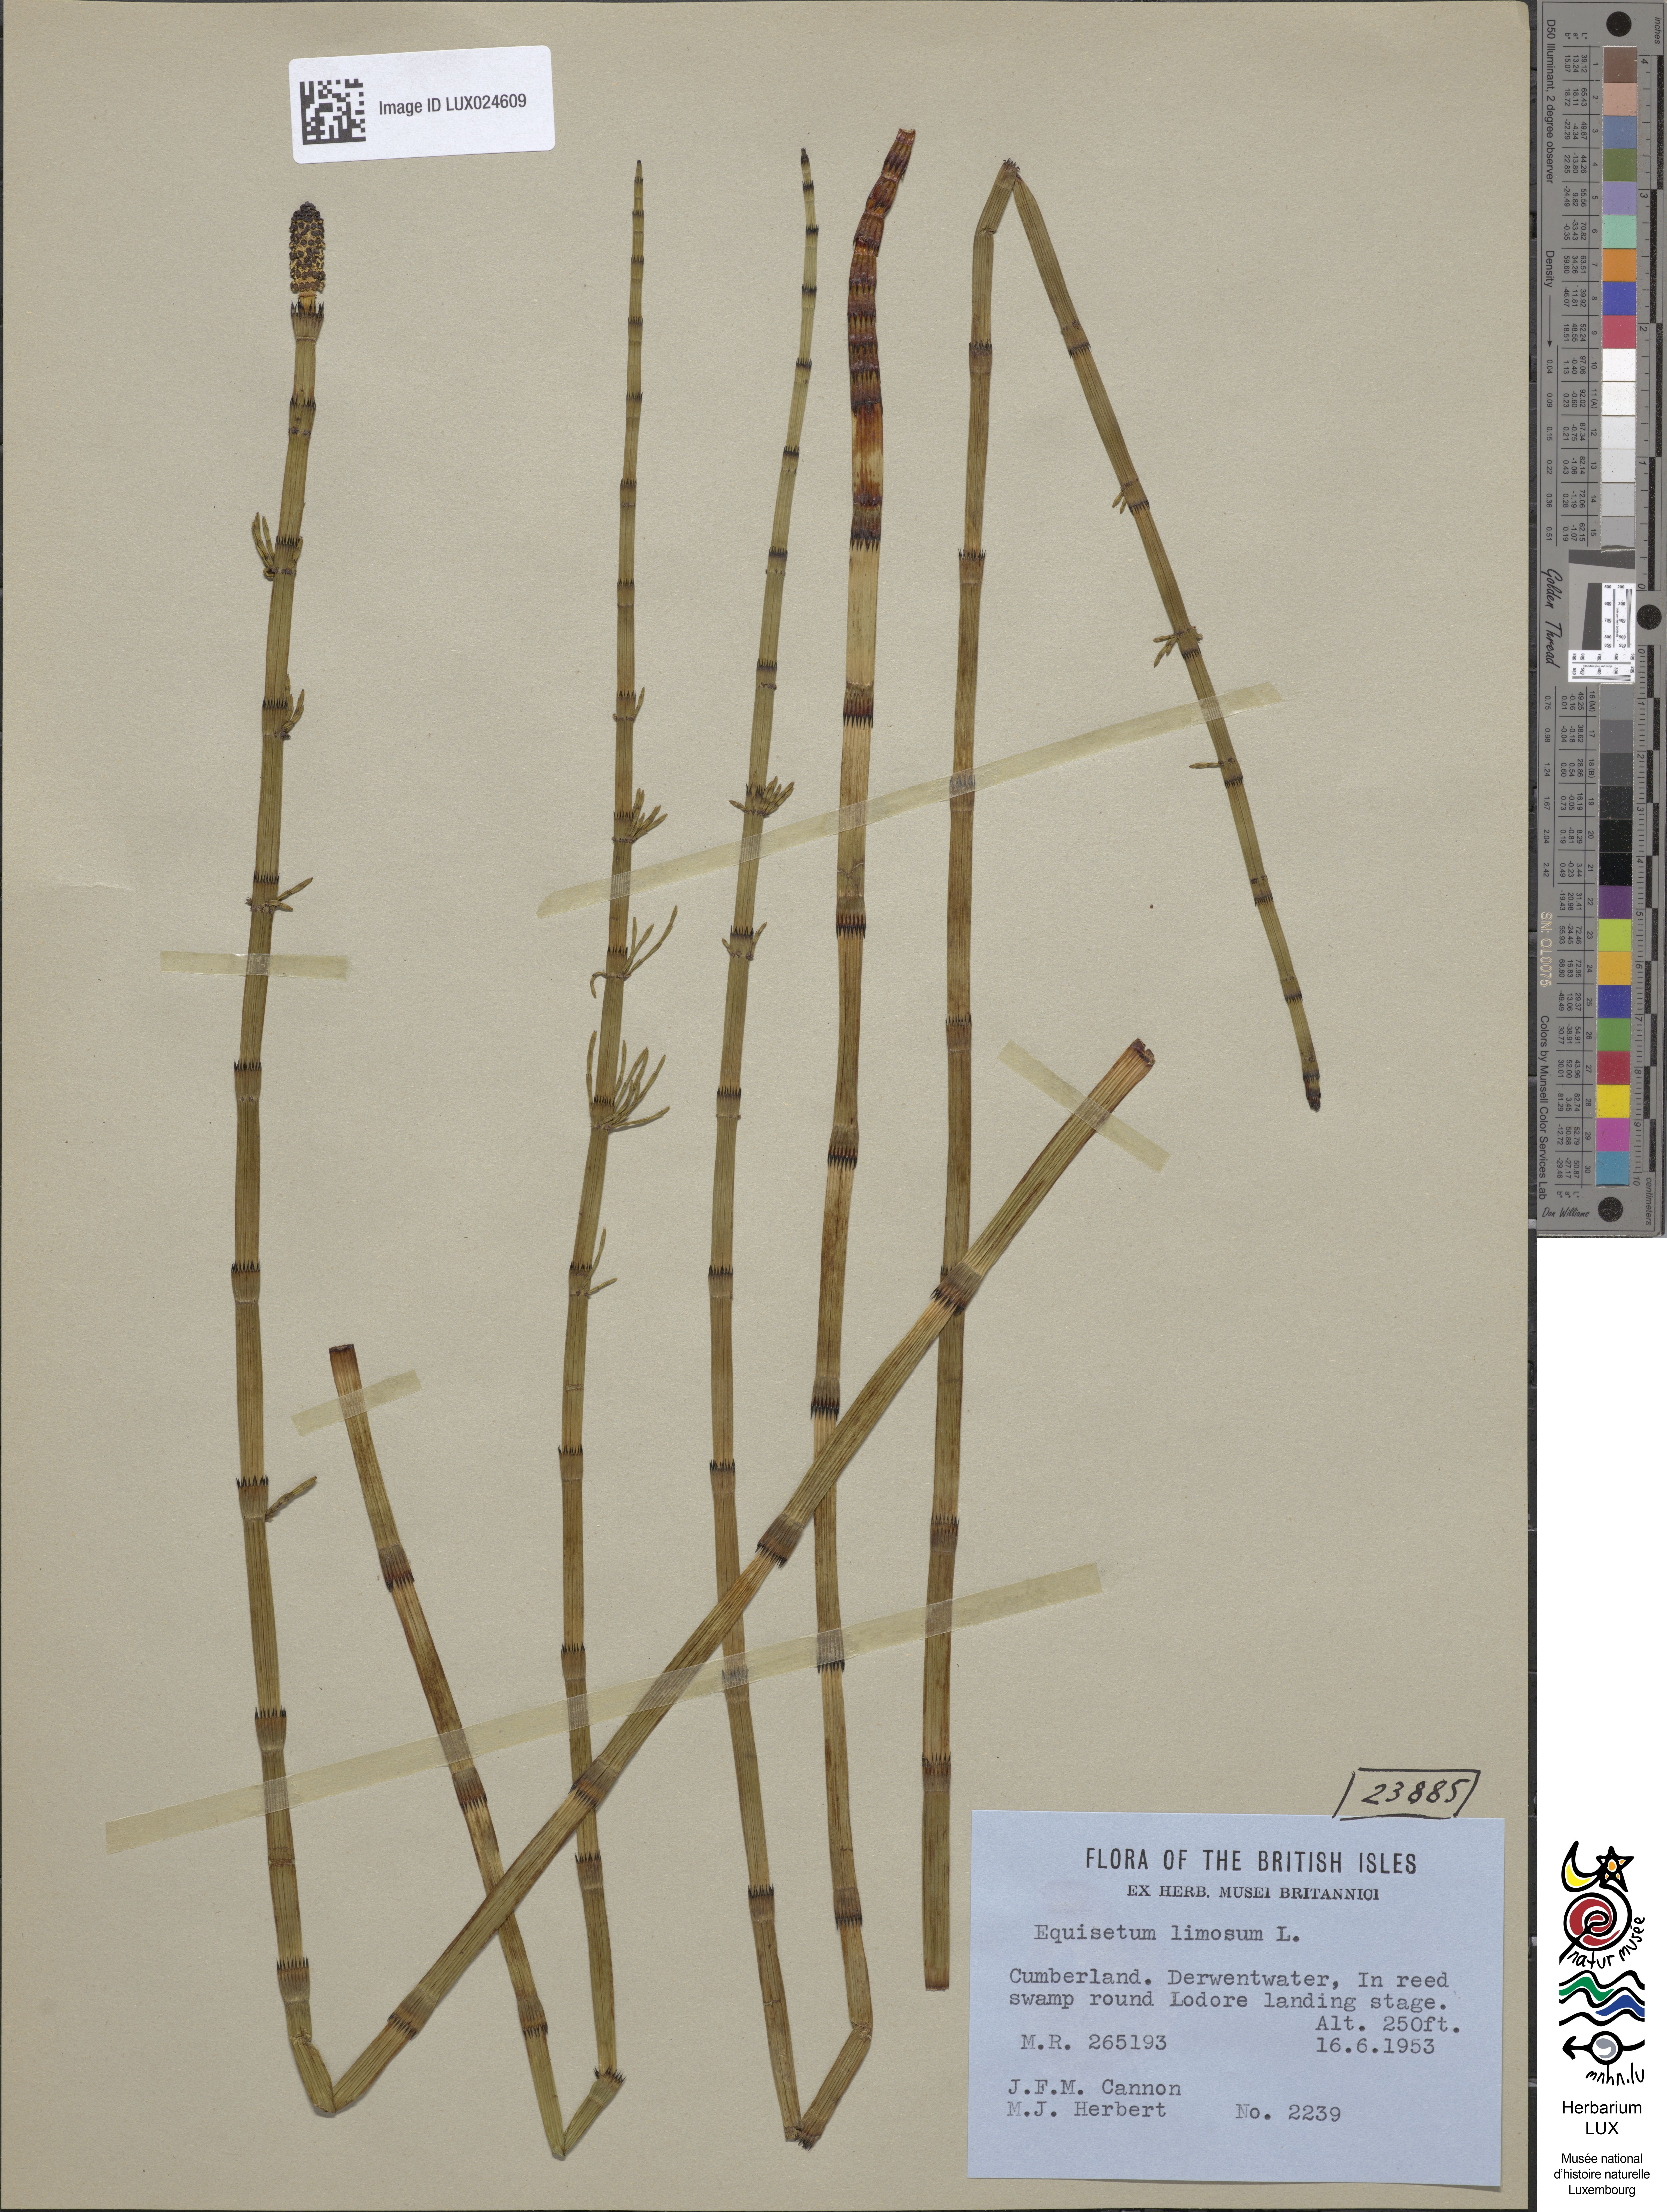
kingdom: Plantae
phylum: Tracheophyta
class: Polypodiopsida
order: Equisetales
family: Equisetaceae
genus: Equisetum
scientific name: Equisetum fluviatile
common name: Water horsetail
